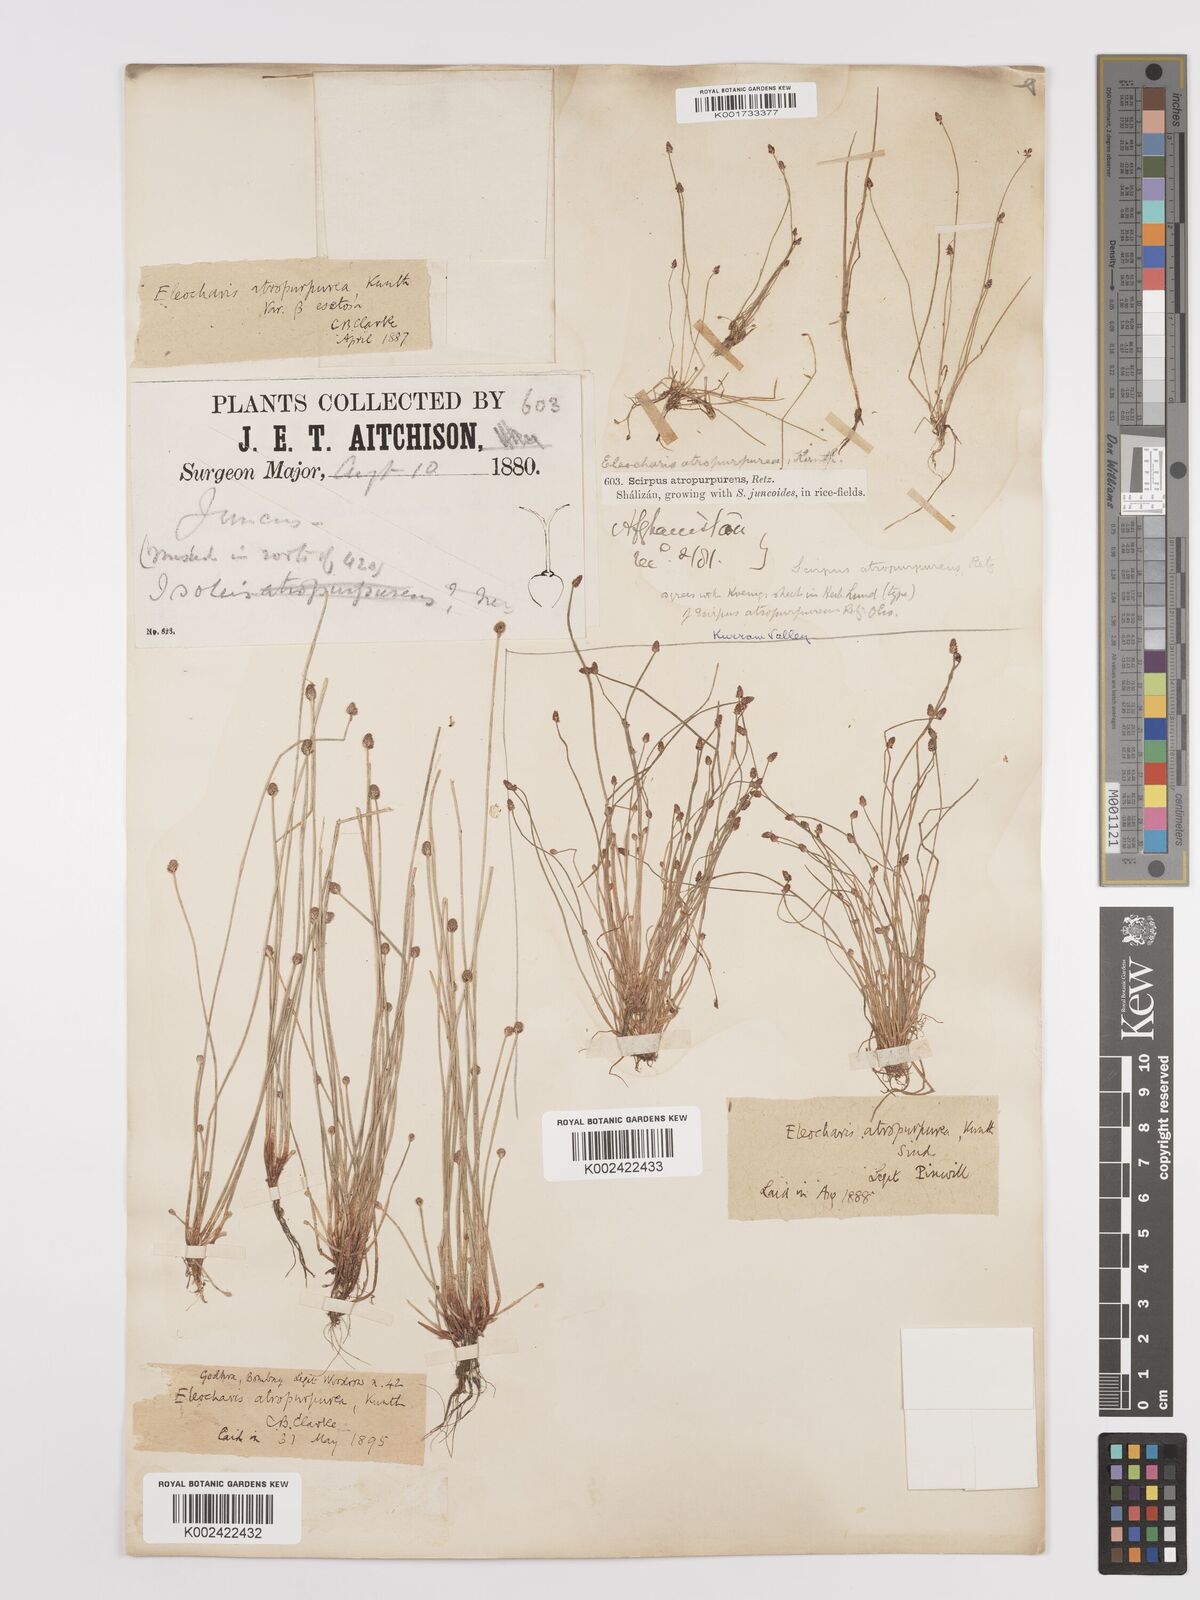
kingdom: Plantae
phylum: Tracheophyta
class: Liliopsida
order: Poales
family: Cyperaceae
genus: Eleocharis
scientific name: Eleocharis atropurpurea
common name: Purple spikerush
